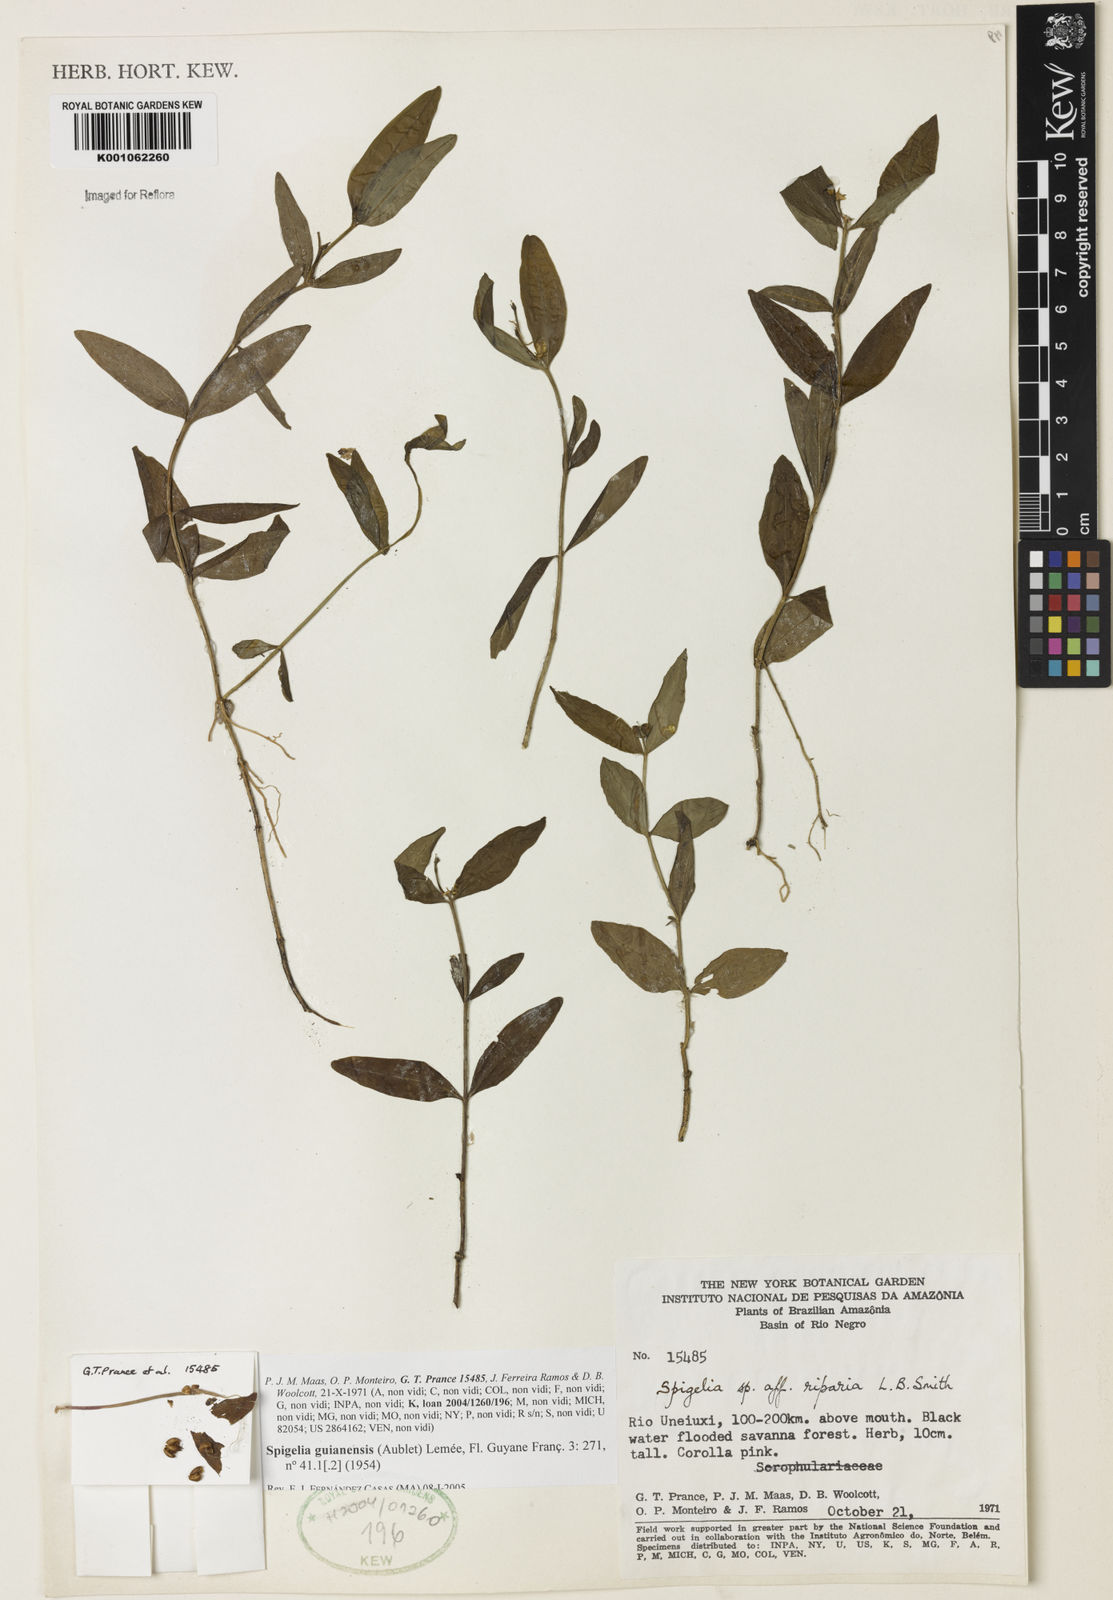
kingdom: Plantae
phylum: Tracheophyta
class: Magnoliopsida
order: Gentianales
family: Loganiaceae
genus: Spigelia
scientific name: Spigelia
